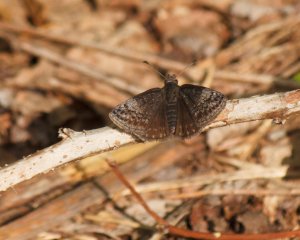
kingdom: Animalia
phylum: Arthropoda
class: Insecta
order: Lepidoptera
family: Hesperiidae
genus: Gesta
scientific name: Gesta
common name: Columbine Duskywing
